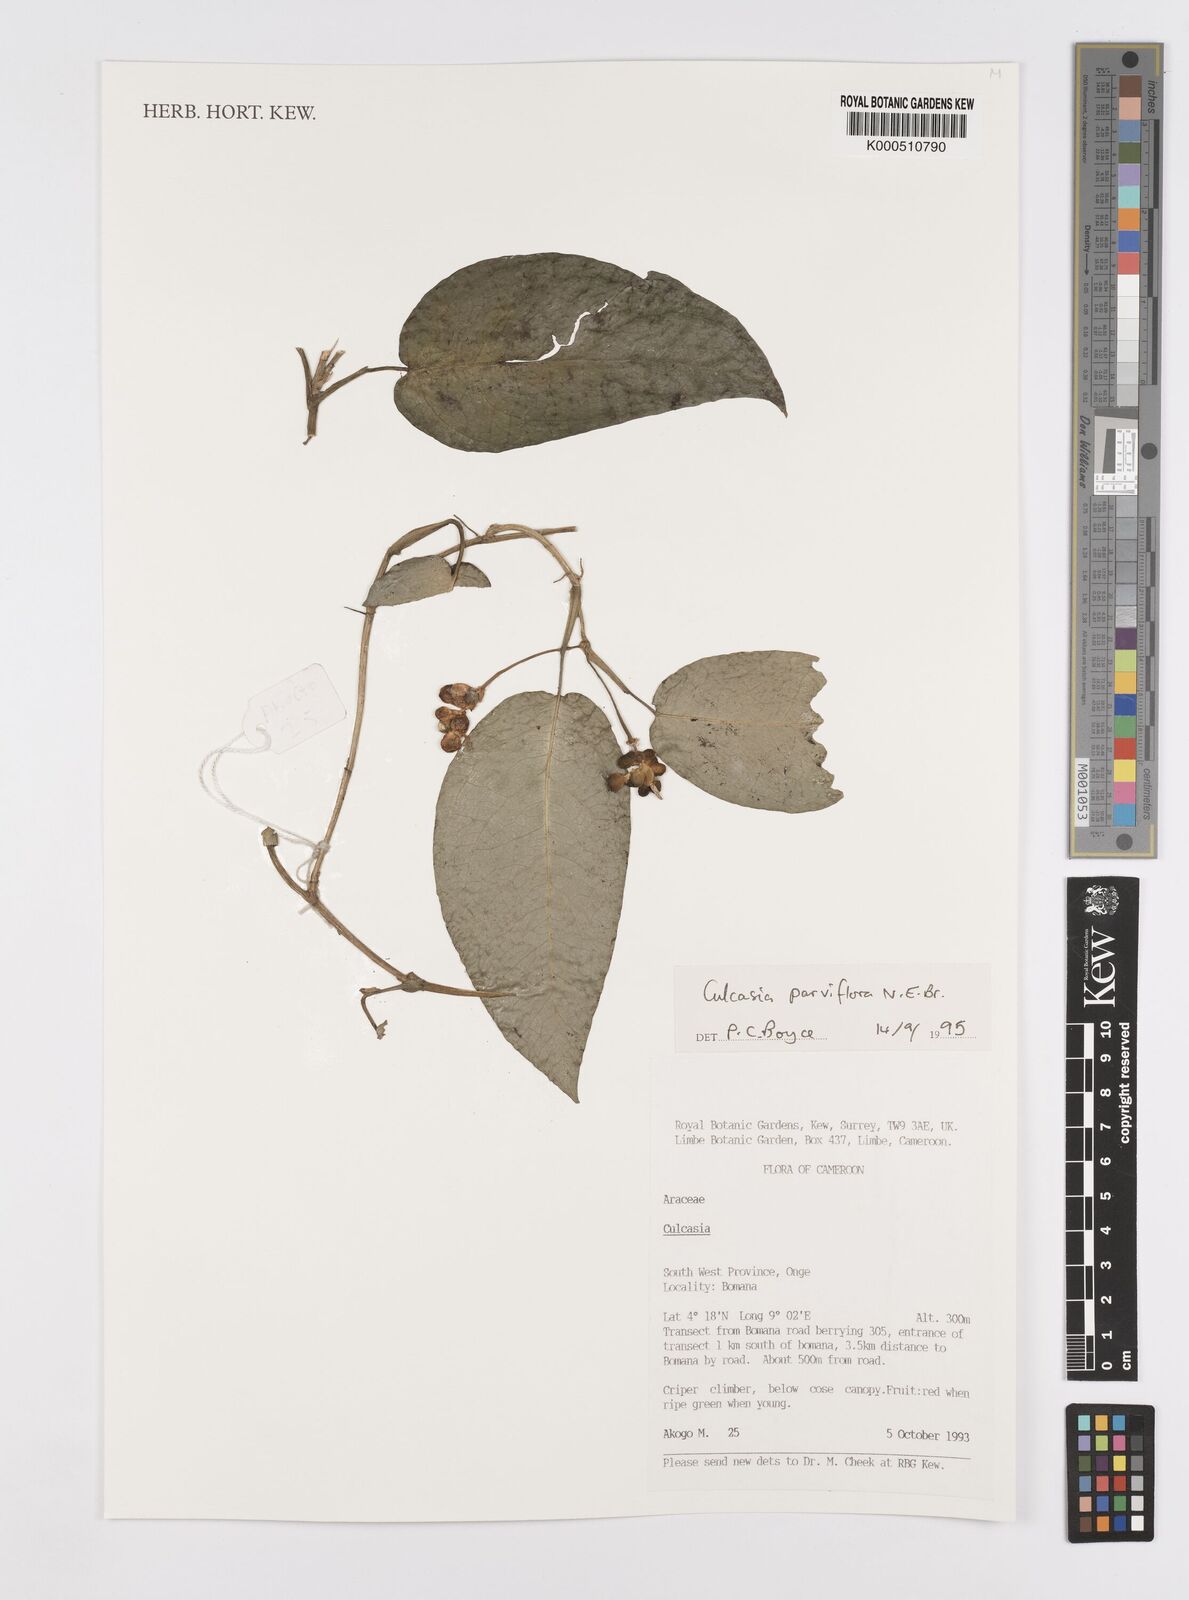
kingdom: Plantae
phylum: Tracheophyta
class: Liliopsida
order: Alismatales
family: Araceae
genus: Culcasia
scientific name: Culcasia parviflora
